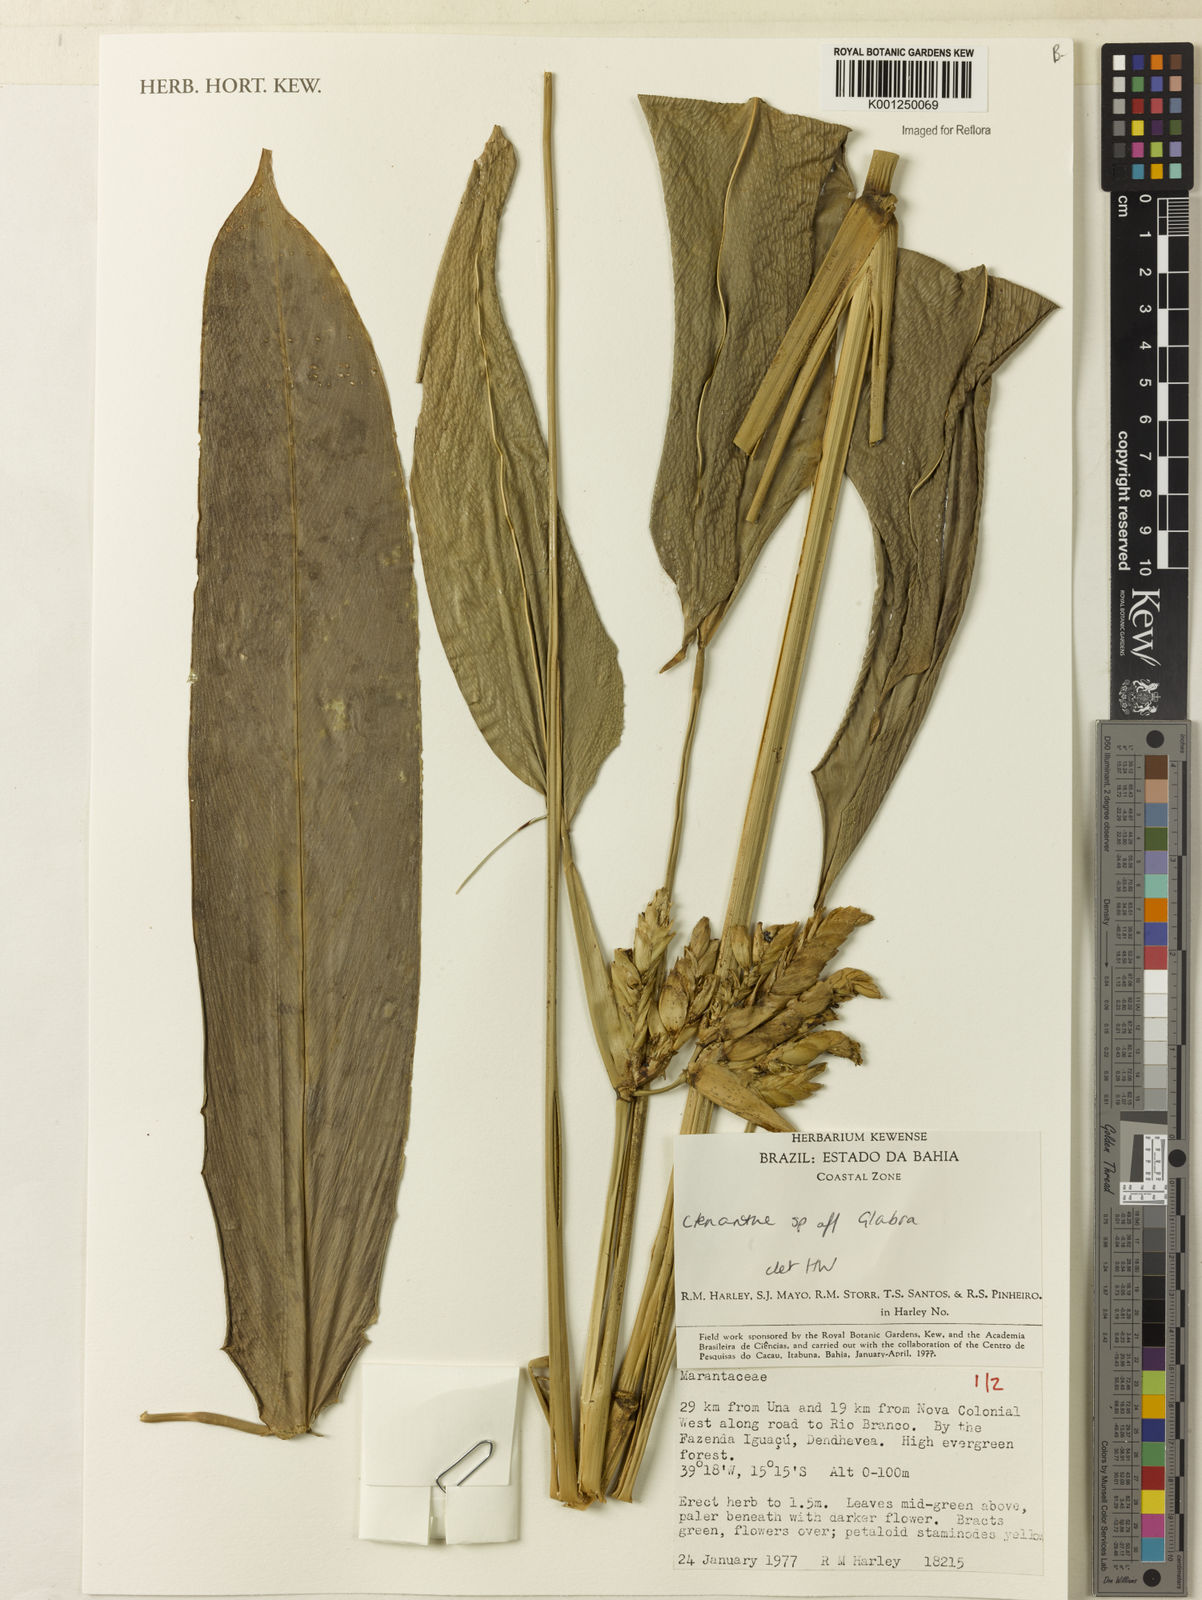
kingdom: Plantae
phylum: Tracheophyta
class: Liliopsida
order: Zingiberales
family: Marantaceae
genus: Ctenanthe
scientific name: Ctenanthe glabra
